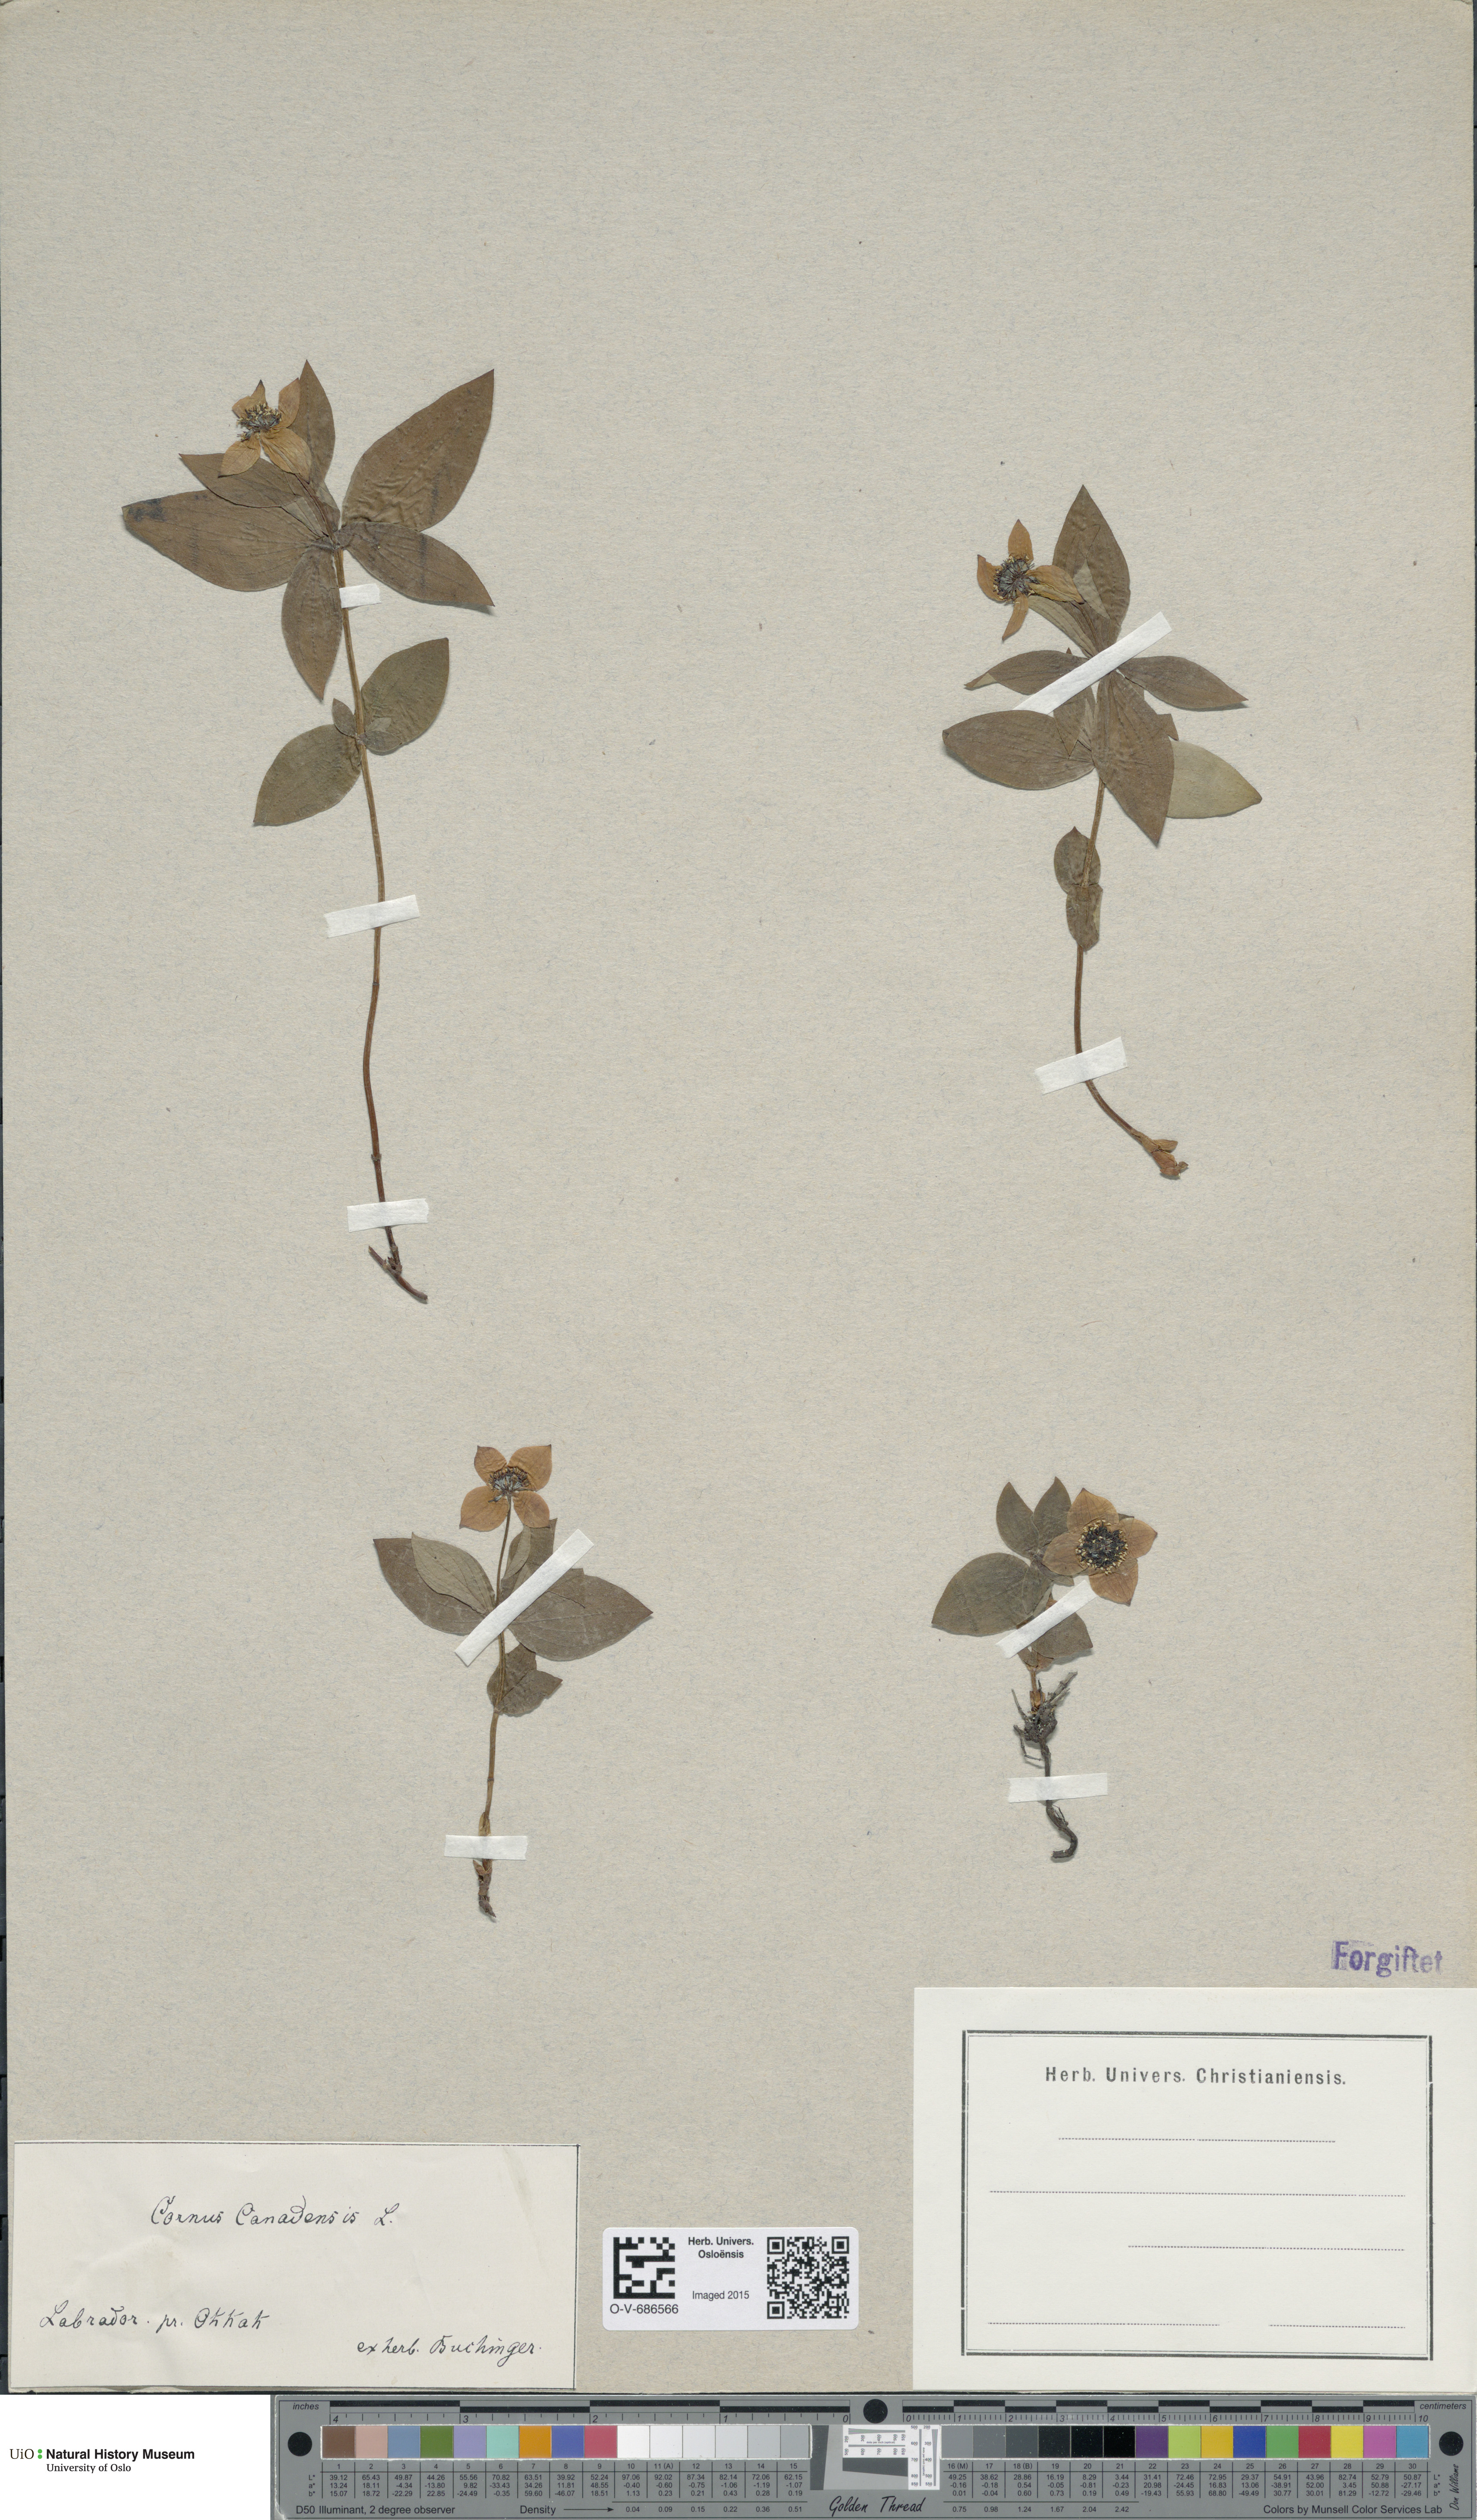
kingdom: Plantae
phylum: Tracheophyta
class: Magnoliopsida
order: Cornales
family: Cornaceae
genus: Cornus
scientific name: Cornus canadensis
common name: Creeping dogwood
